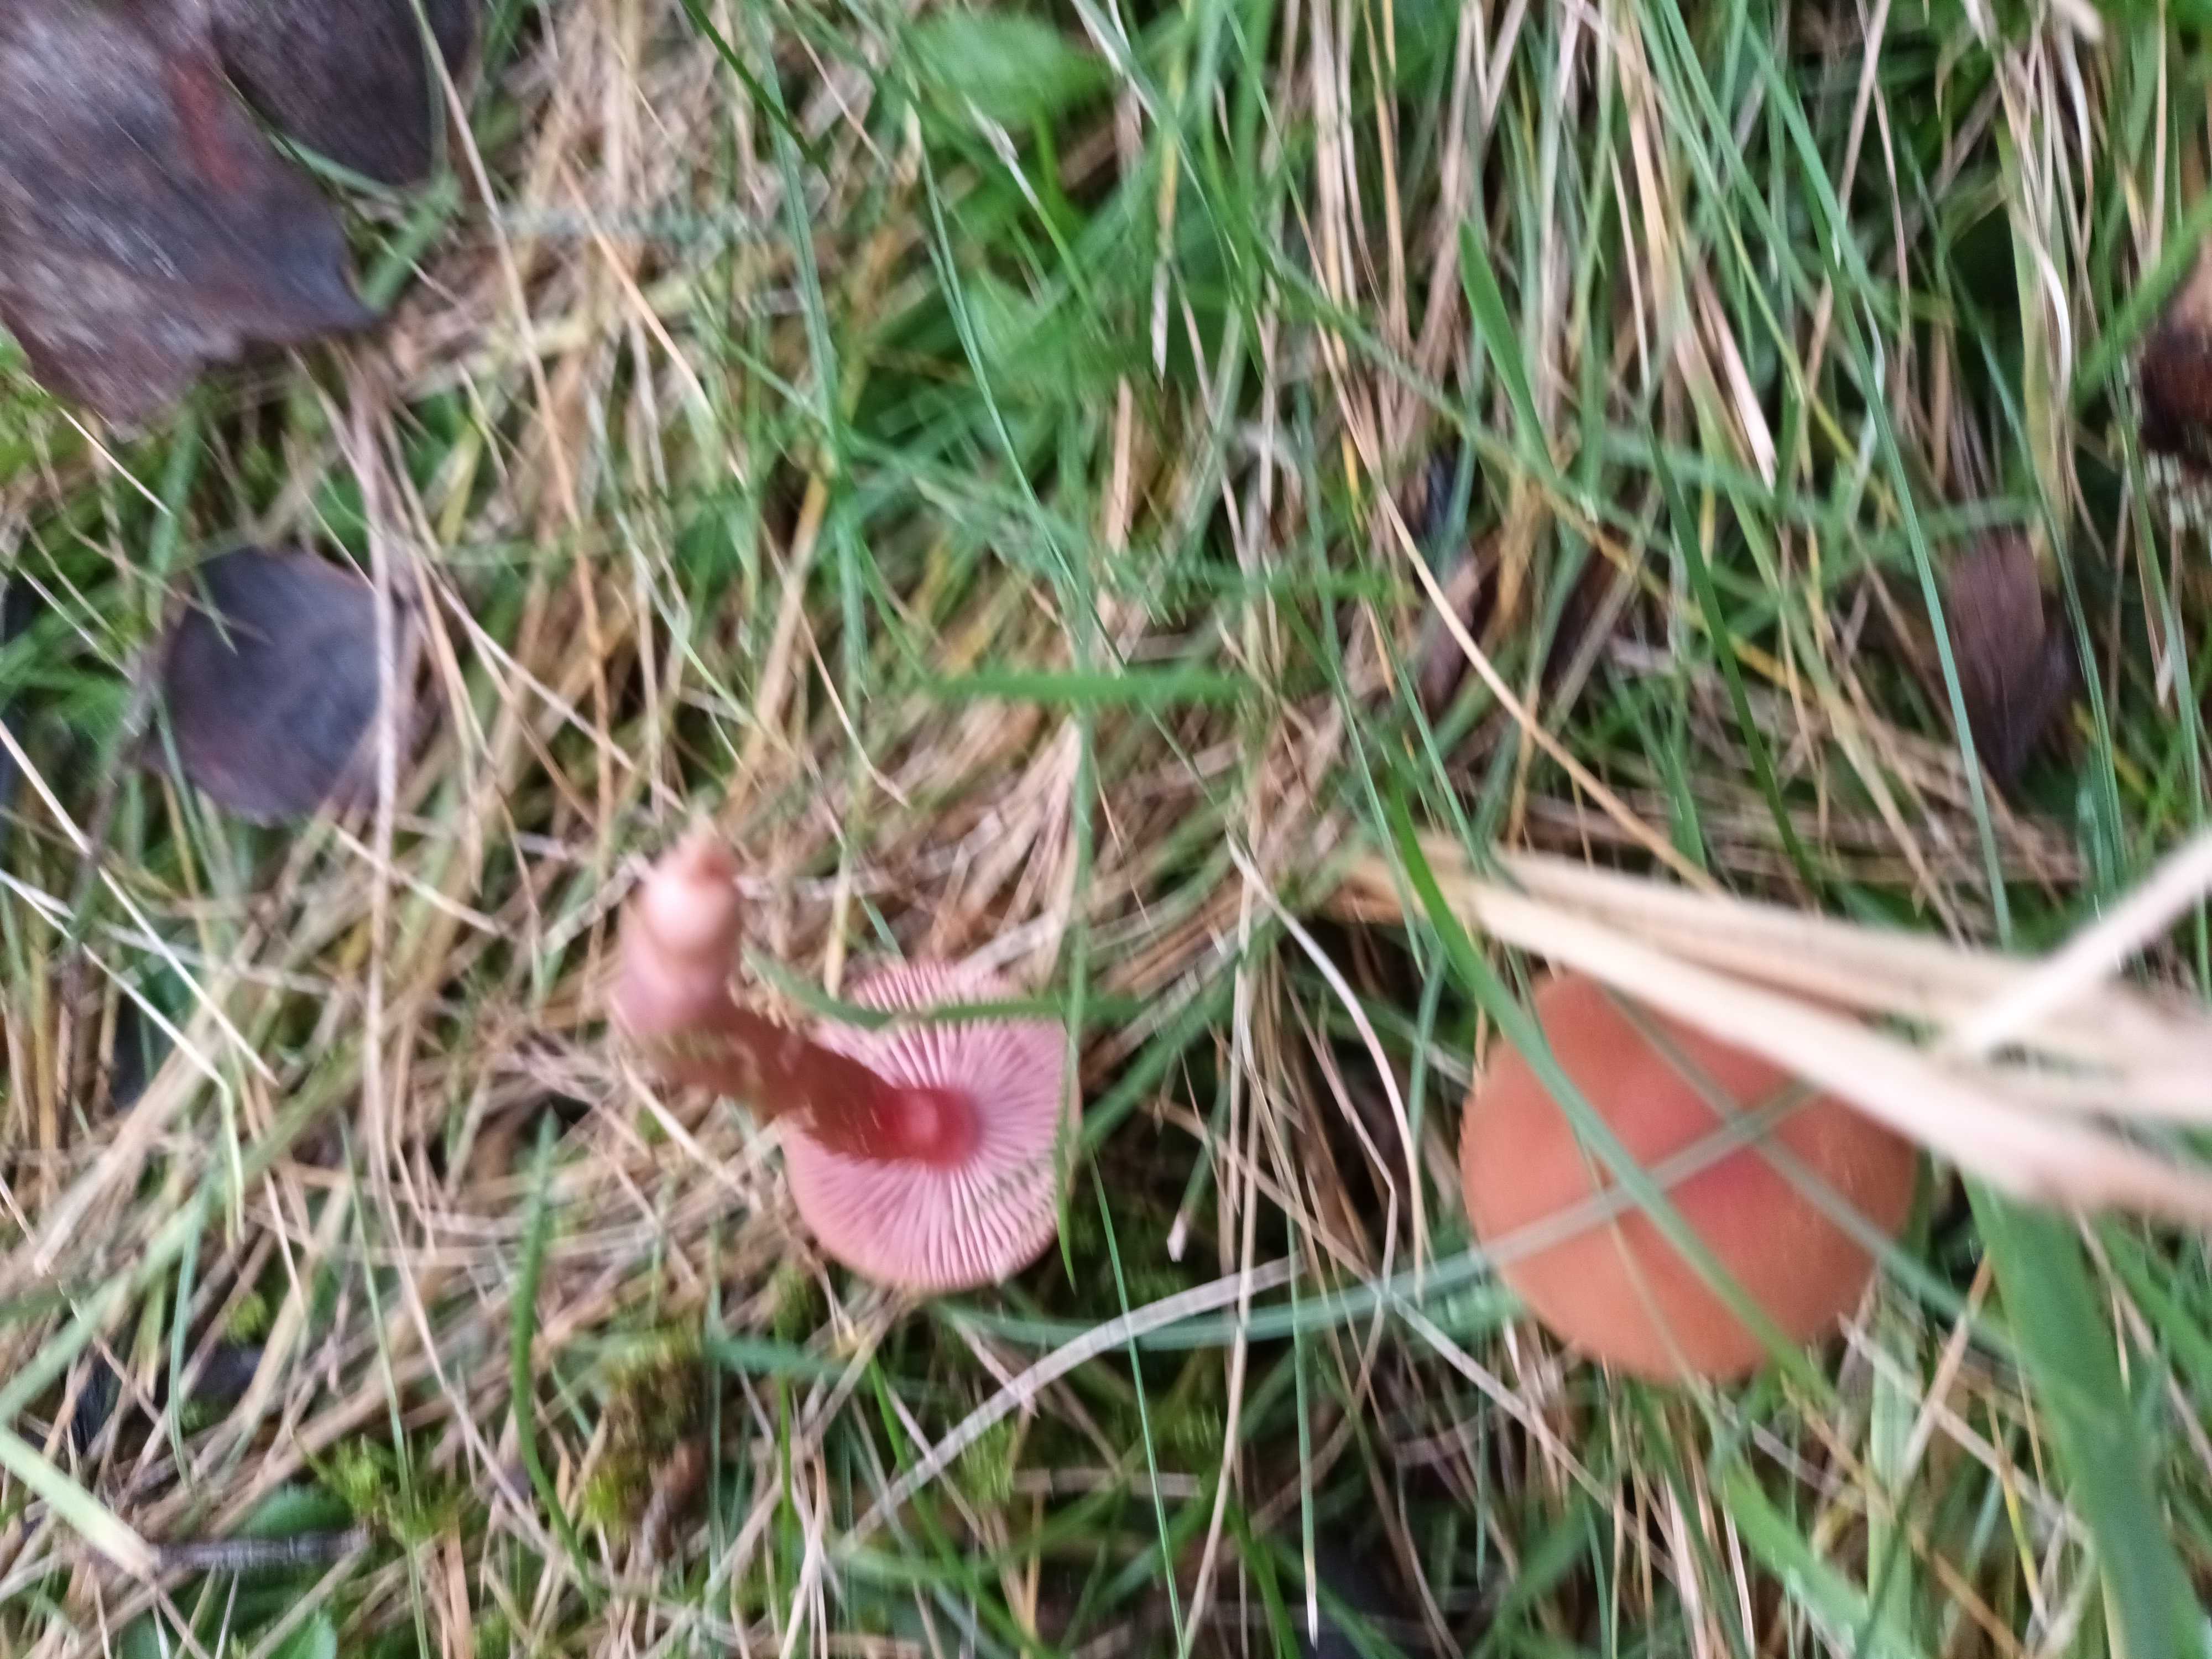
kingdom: Fungi
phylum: Basidiomycota
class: Agaricomycetes
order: Agaricales
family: Hydnangiaceae
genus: Laccaria
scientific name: Laccaria
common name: ametysthat
